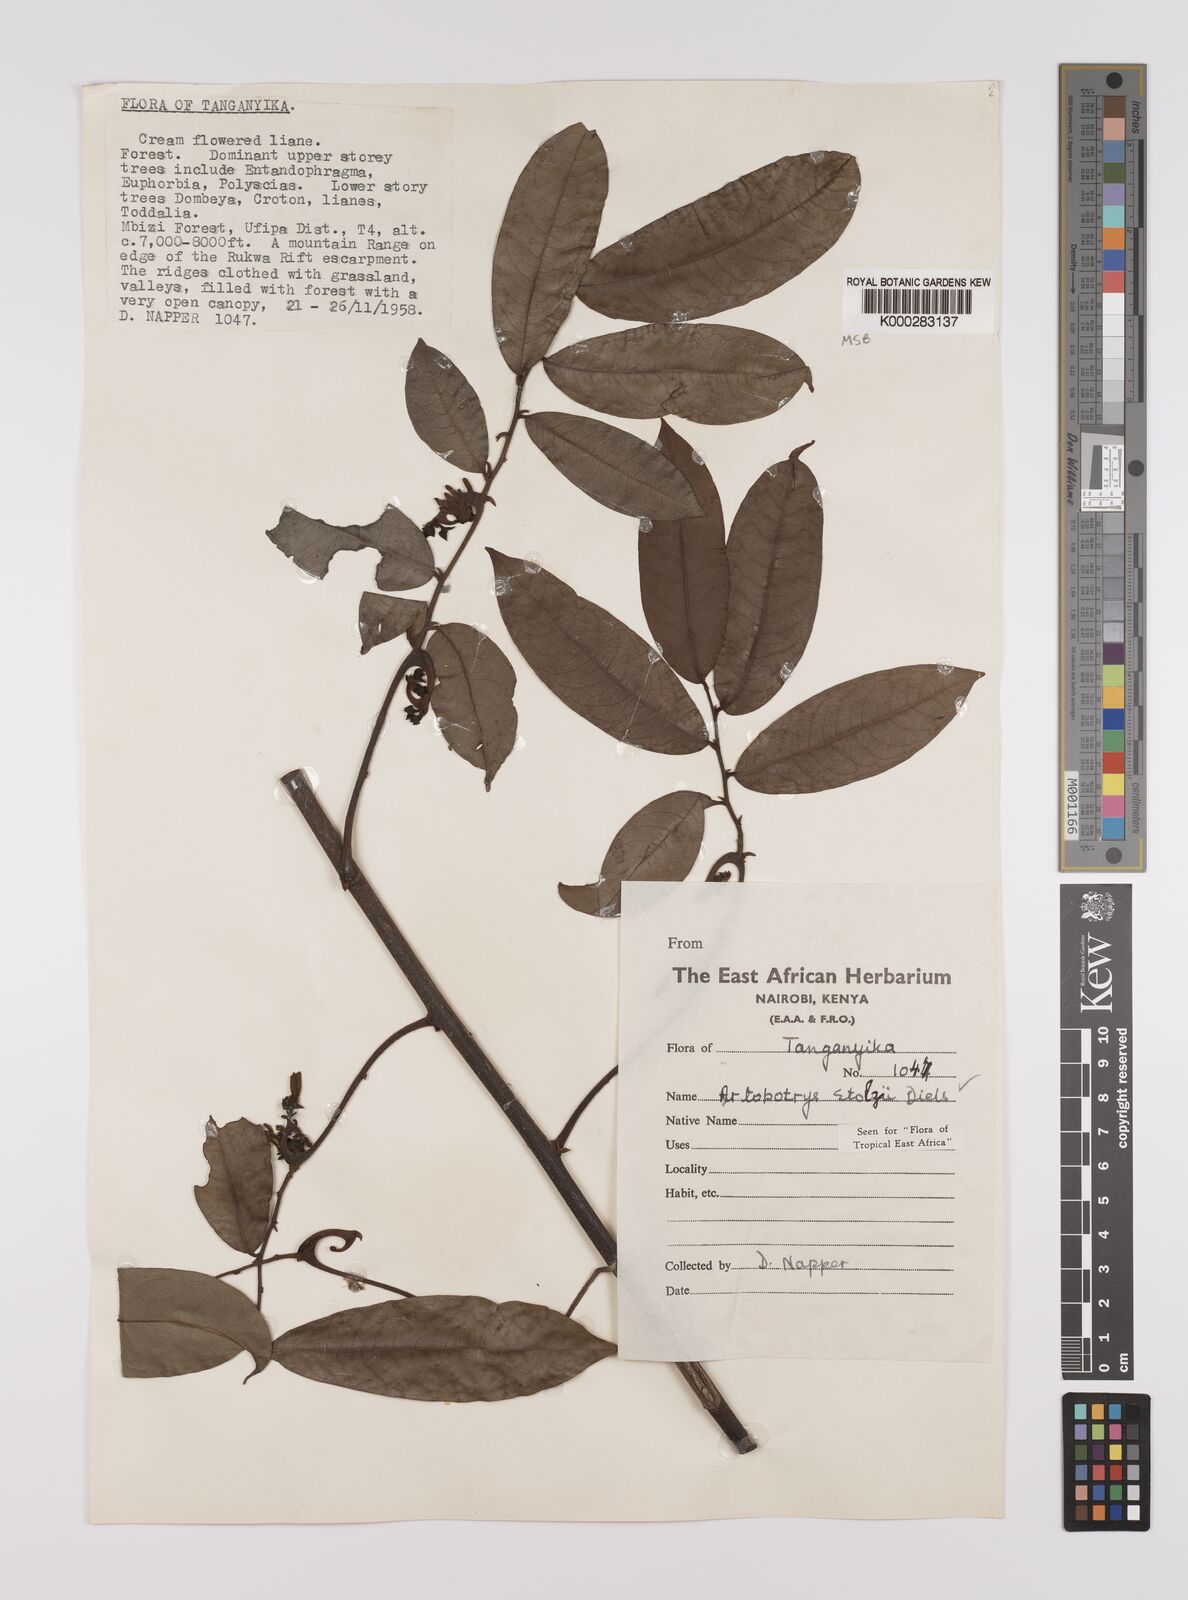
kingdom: Plantae
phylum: Tracheophyta
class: Magnoliopsida
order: Magnoliales
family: Annonaceae
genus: Artabotrys
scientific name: Artabotrys stolzii
